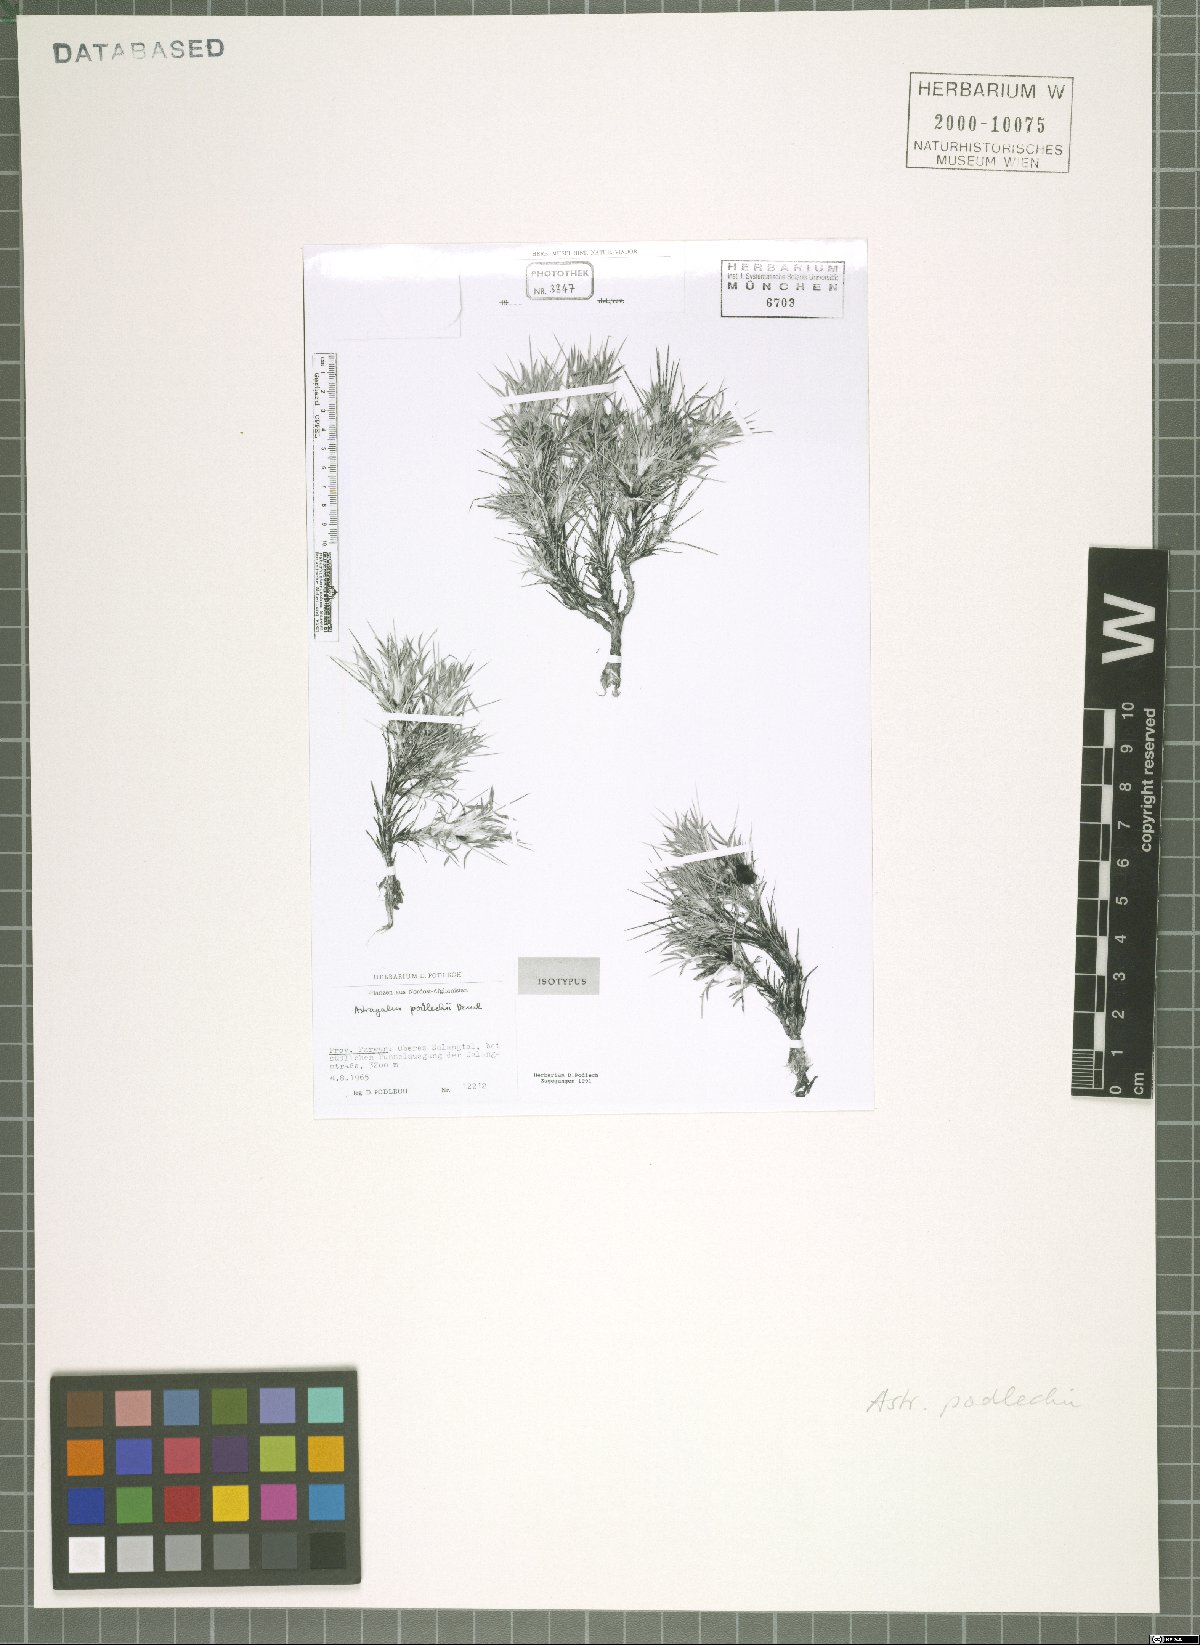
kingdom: Plantae
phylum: Tracheophyta
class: Magnoliopsida
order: Fabales
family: Fabaceae
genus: Astragalus
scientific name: Astragalus podlechii
